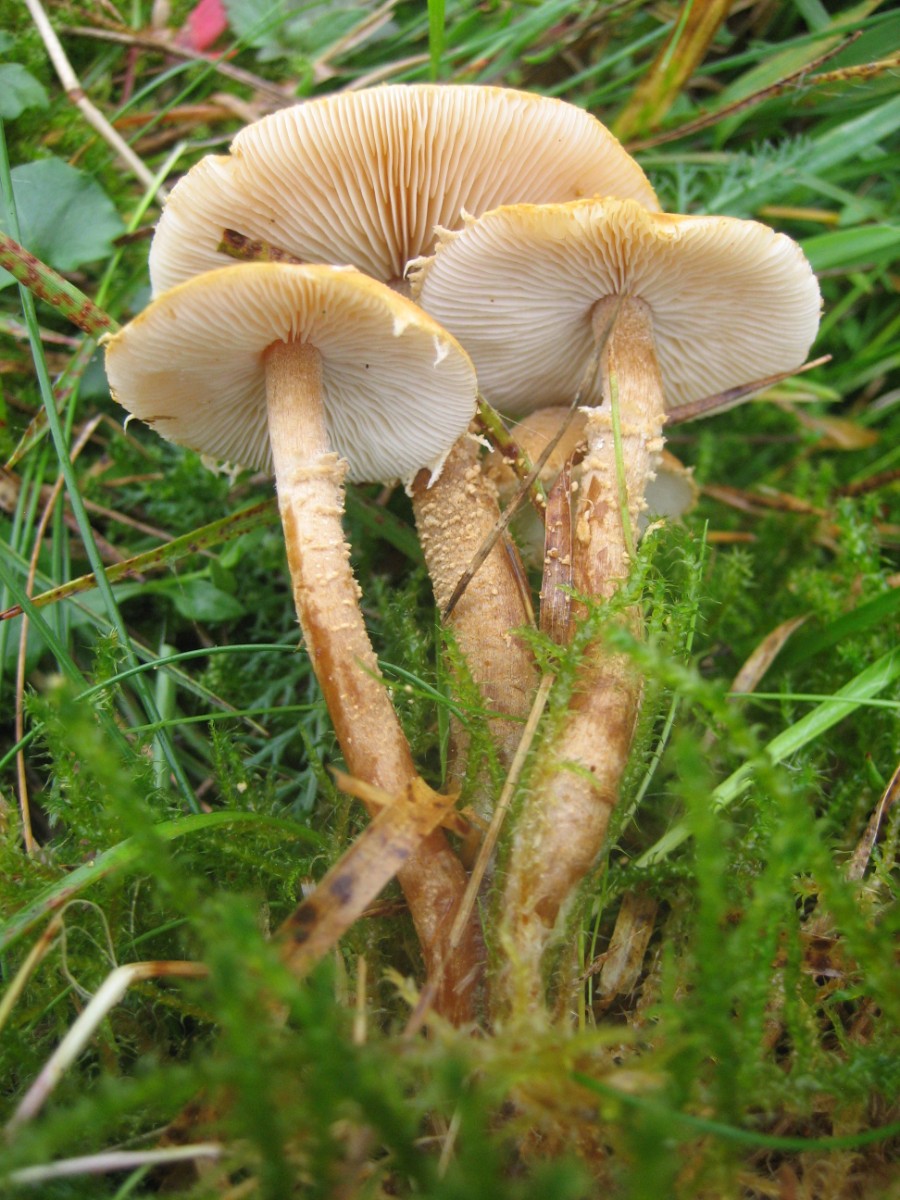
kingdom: Fungi
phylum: Basidiomycota
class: Agaricomycetes
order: Agaricales
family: Tricholomataceae
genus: Cystoderma
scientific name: Cystoderma amianthinum
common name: okkergul grynhat
